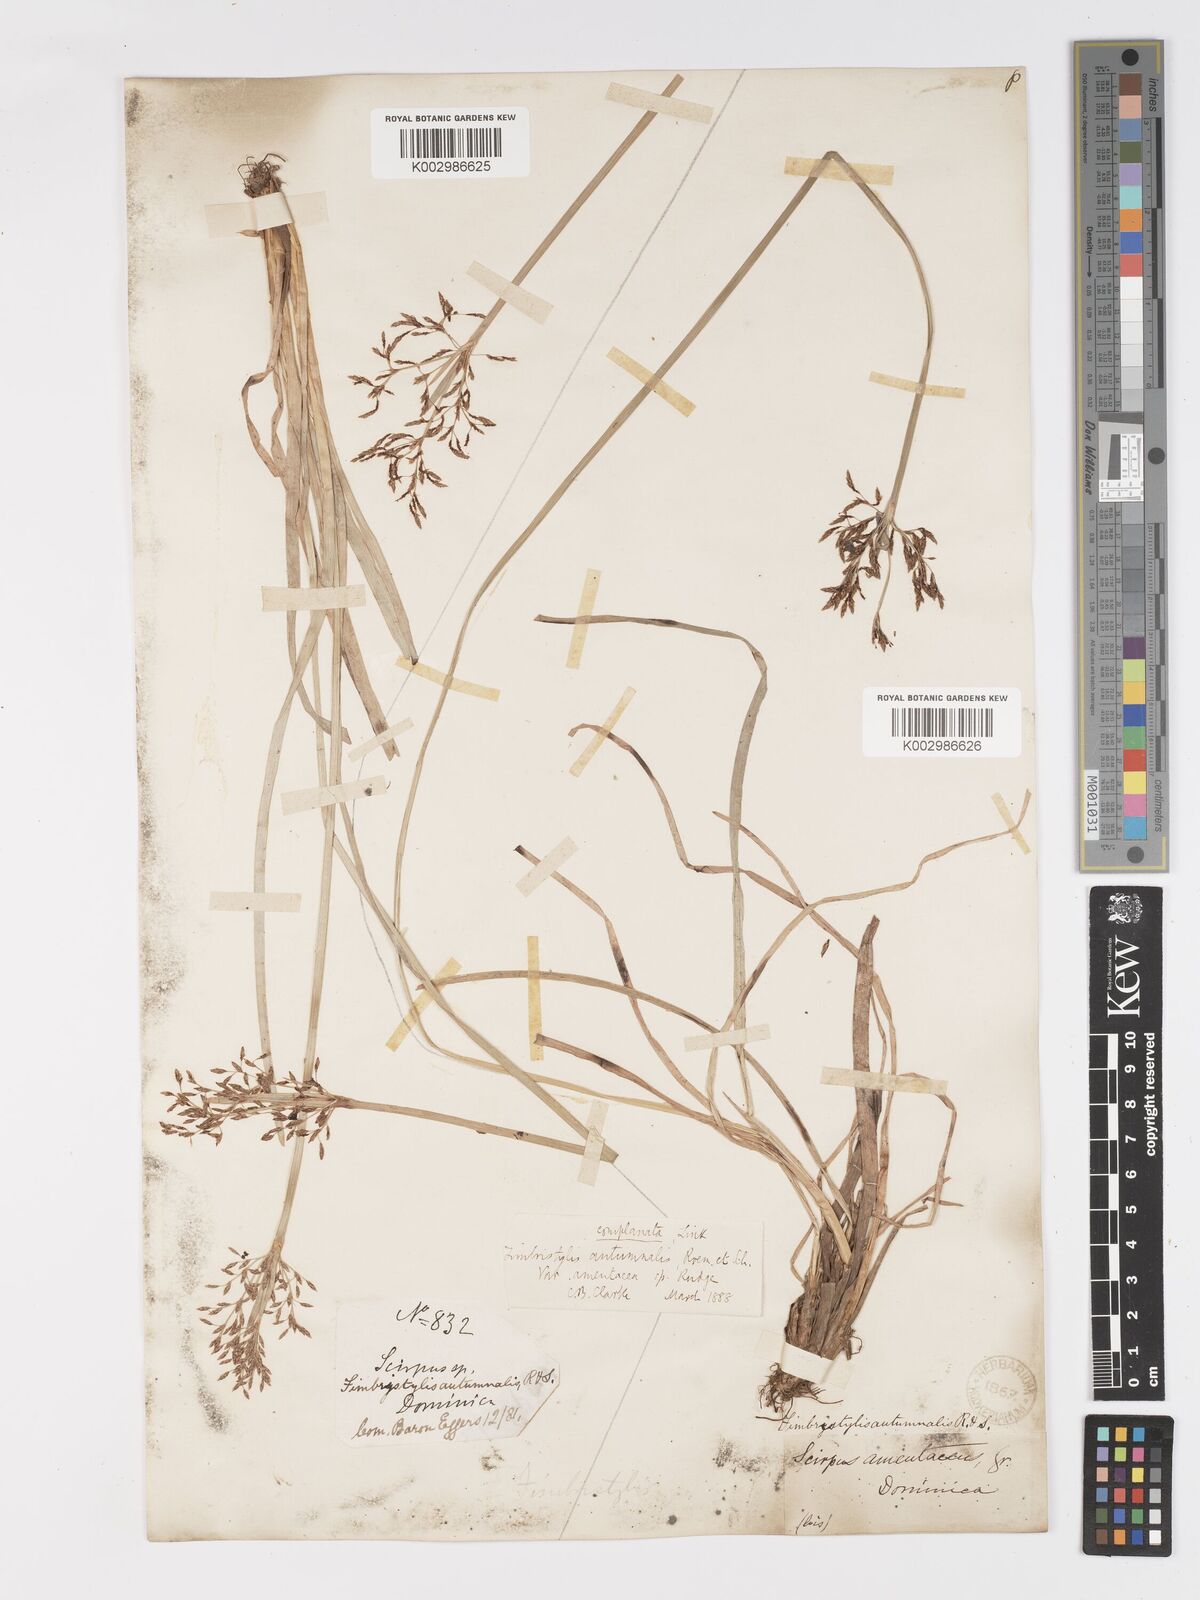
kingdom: Plantae
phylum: Tracheophyta
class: Liliopsida
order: Poales
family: Cyperaceae
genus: Fimbristylis
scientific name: Fimbristylis complanata
